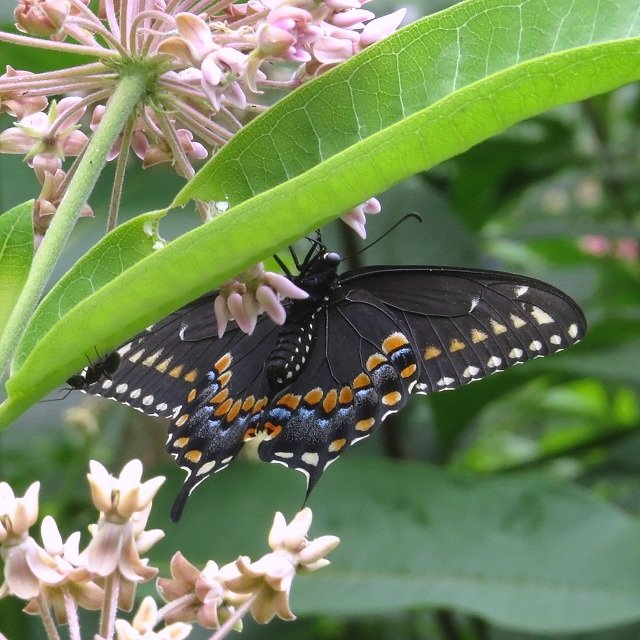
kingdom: Animalia
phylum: Arthropoda
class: Insecta
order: Lepidoptera
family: Papilionidae
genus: Papilio
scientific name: Papilio polyxenes
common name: Black Swallowtail
